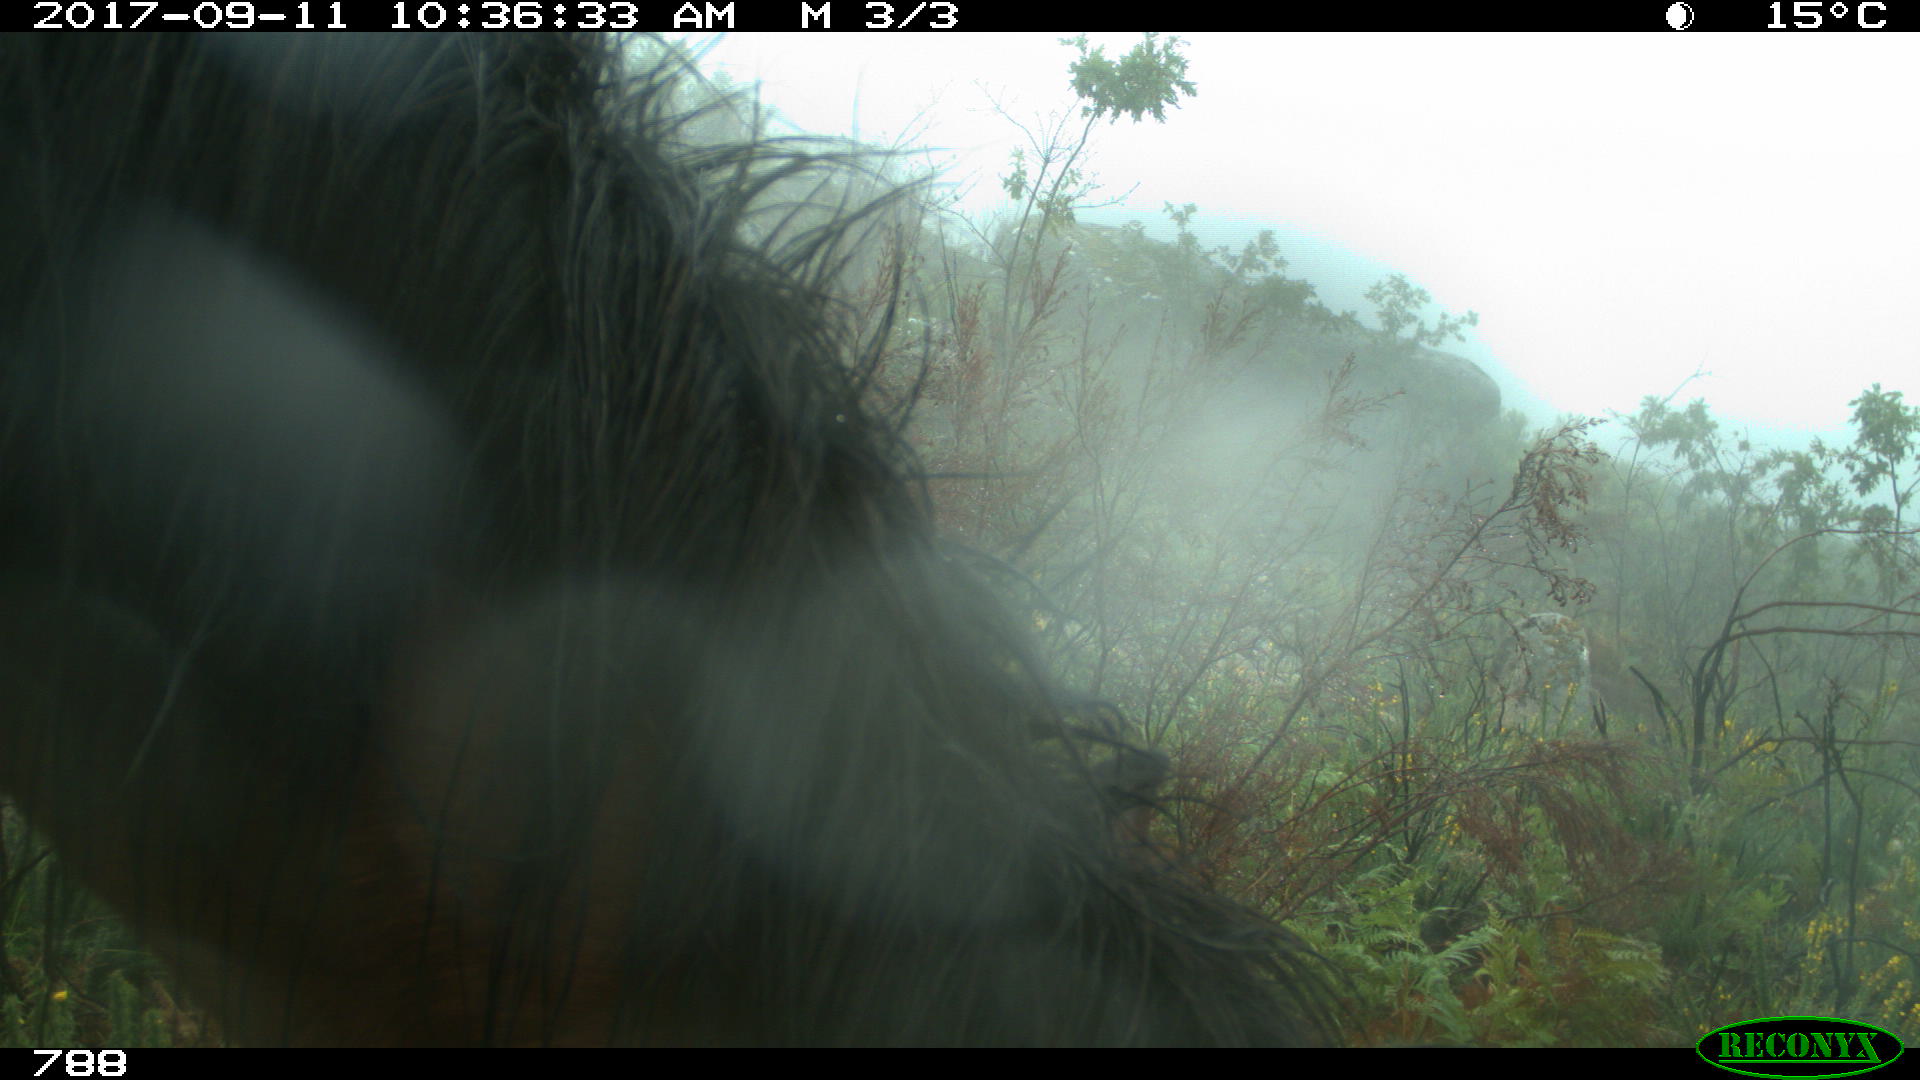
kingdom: Animalia
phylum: Chordata
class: Mammalia
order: Perissodactyla
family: Equidae
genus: Equus
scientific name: Equus caballus
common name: Horse
